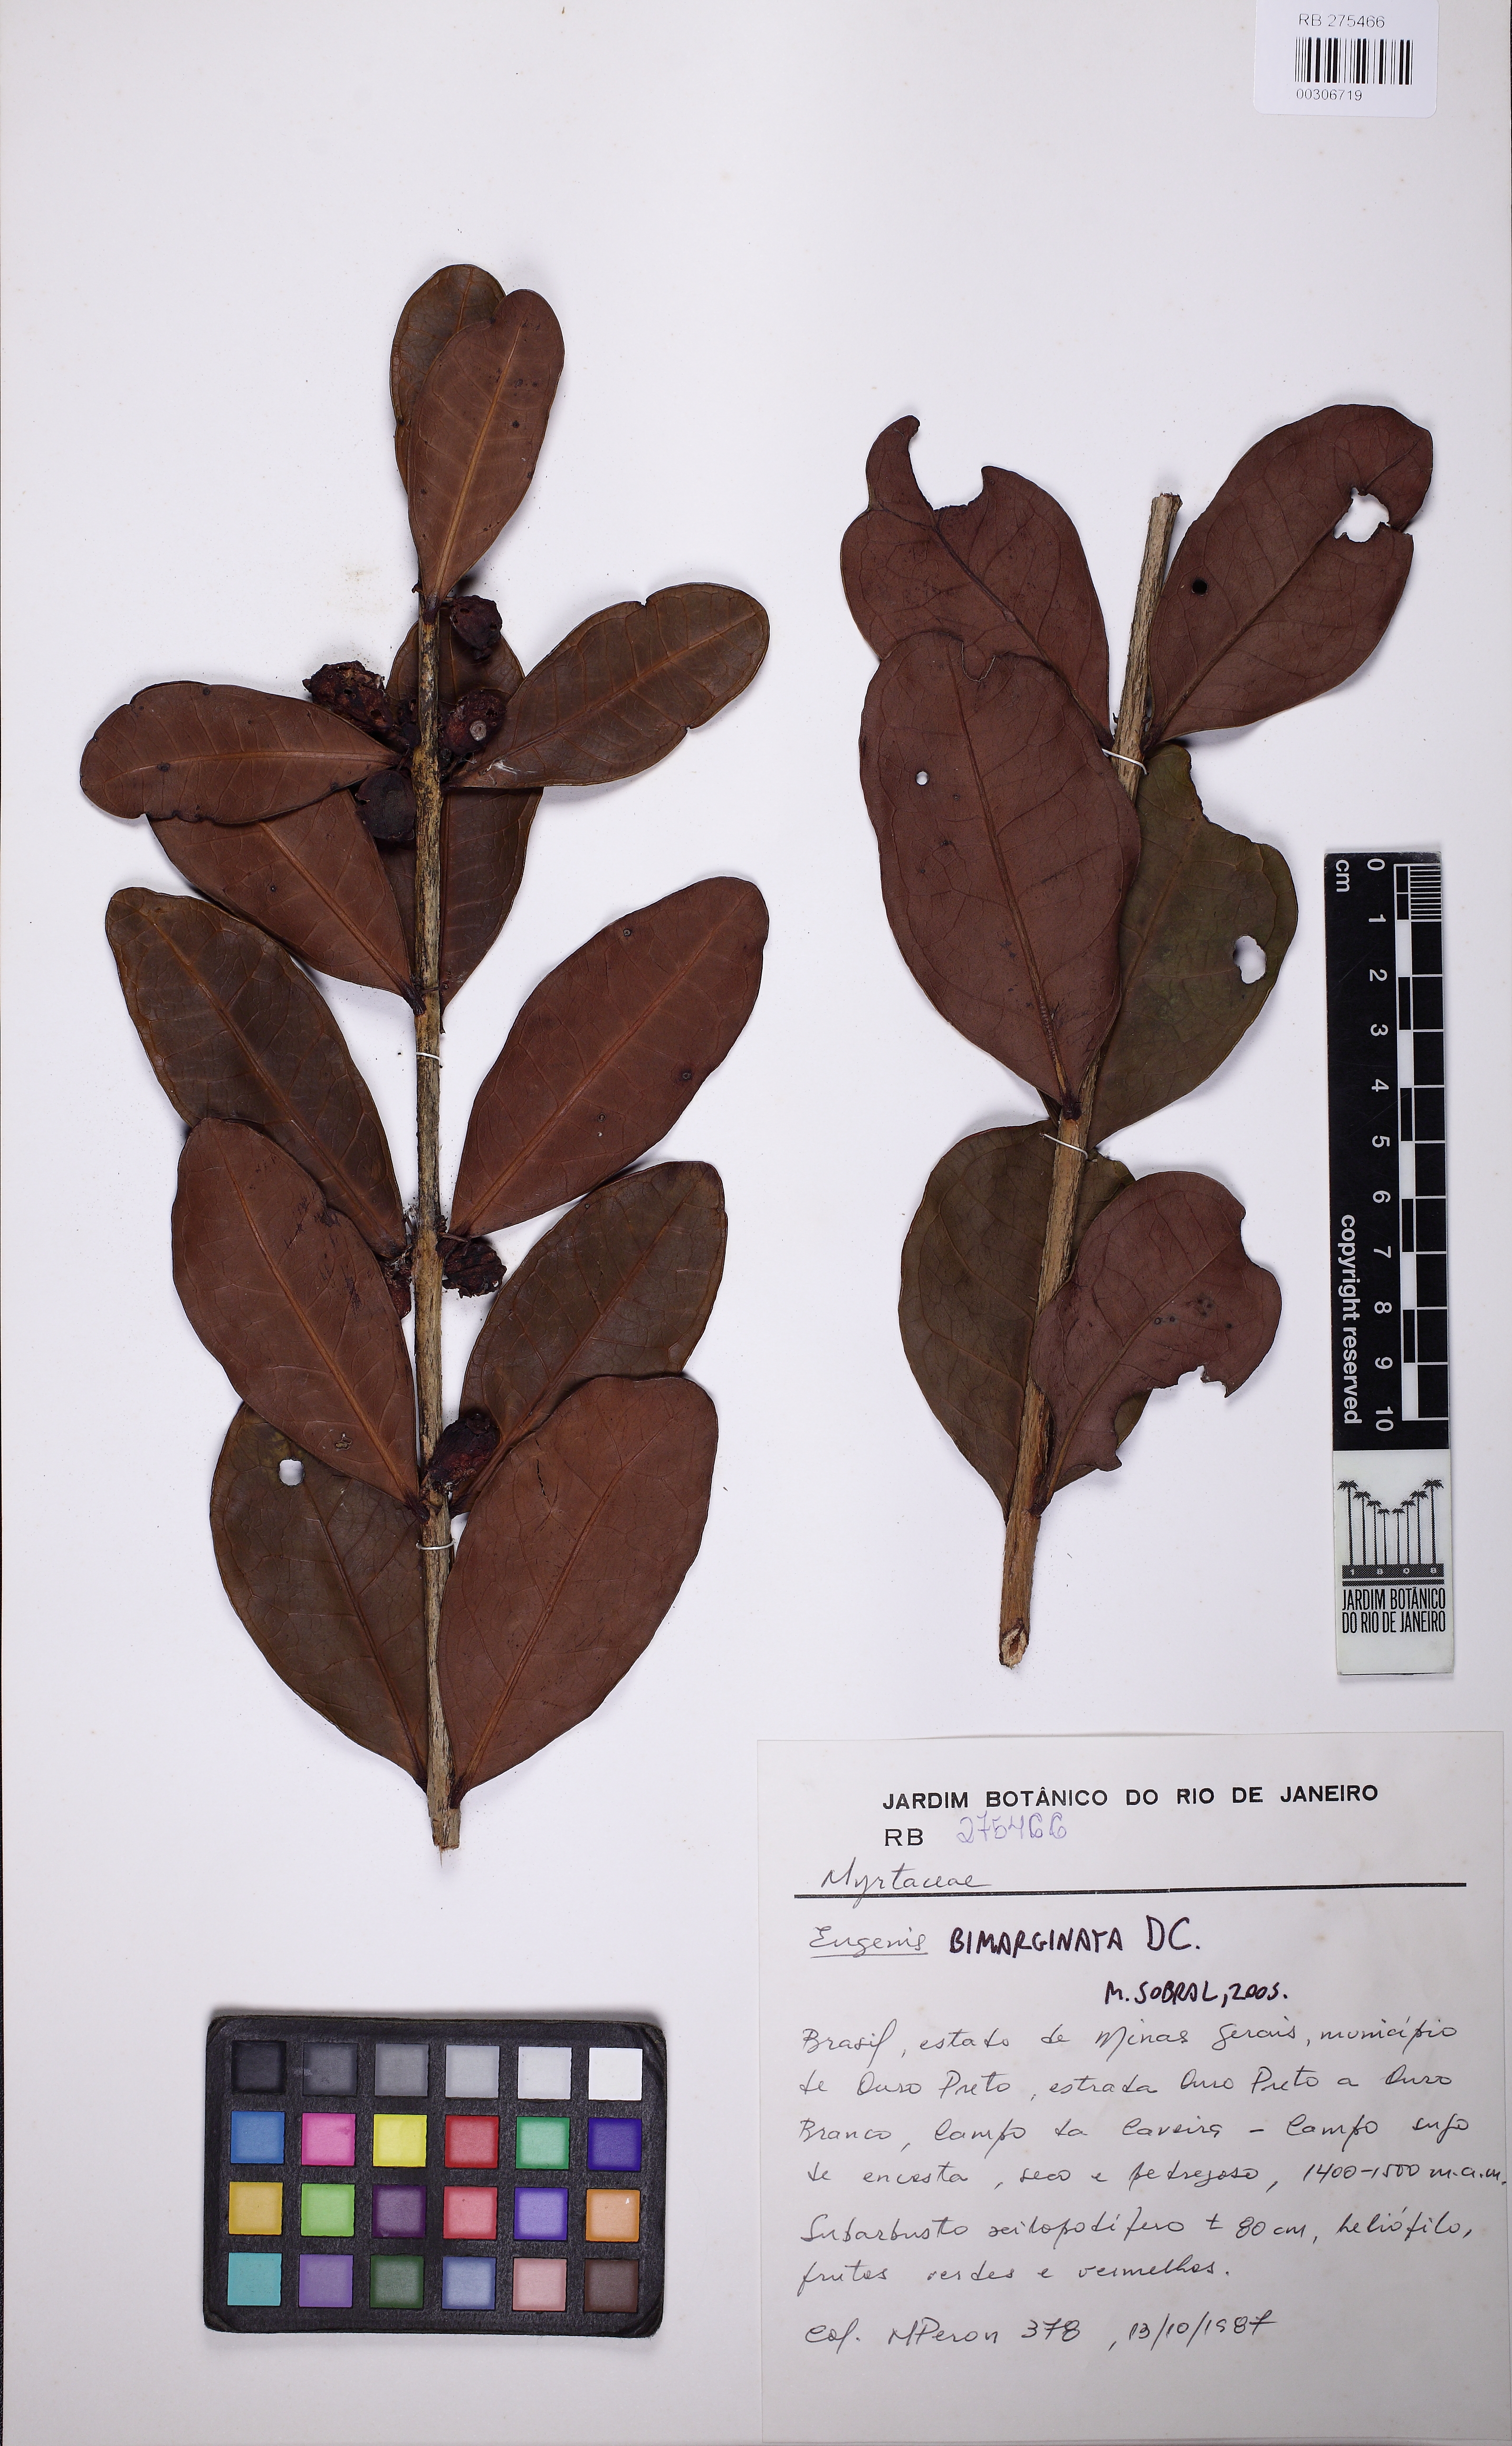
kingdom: Plantae
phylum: Tracheophyta
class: Magnoliopsida
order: Myrtales
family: Myrtaceae
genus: Eugenia
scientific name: Eugenia bimarginata
